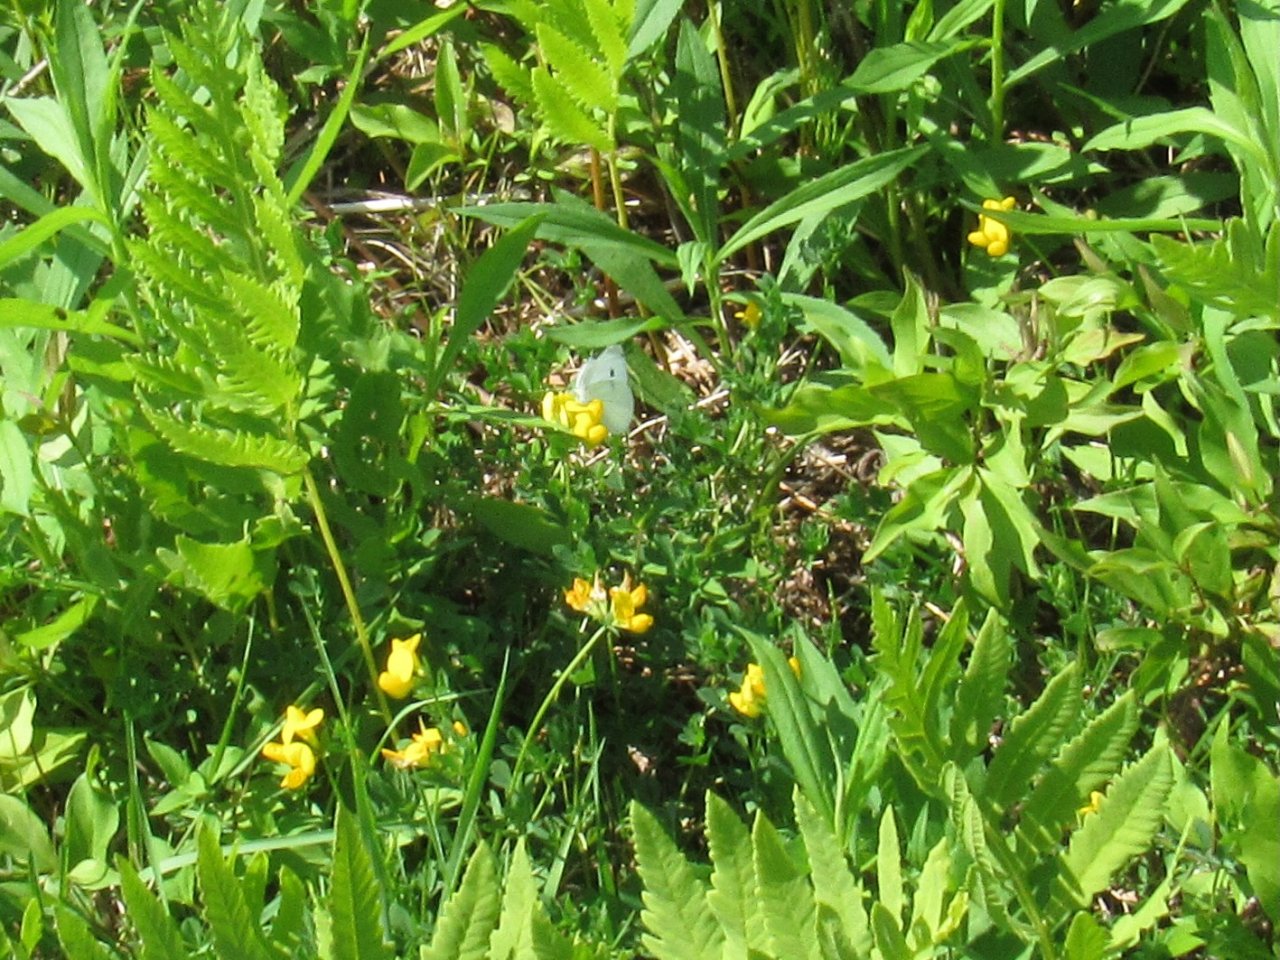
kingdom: Animalia
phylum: Arthropoda
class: Insecta
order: Lepidoptera
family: Pieridae
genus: Pieris
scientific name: Pieris rapae
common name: Cabbage White
